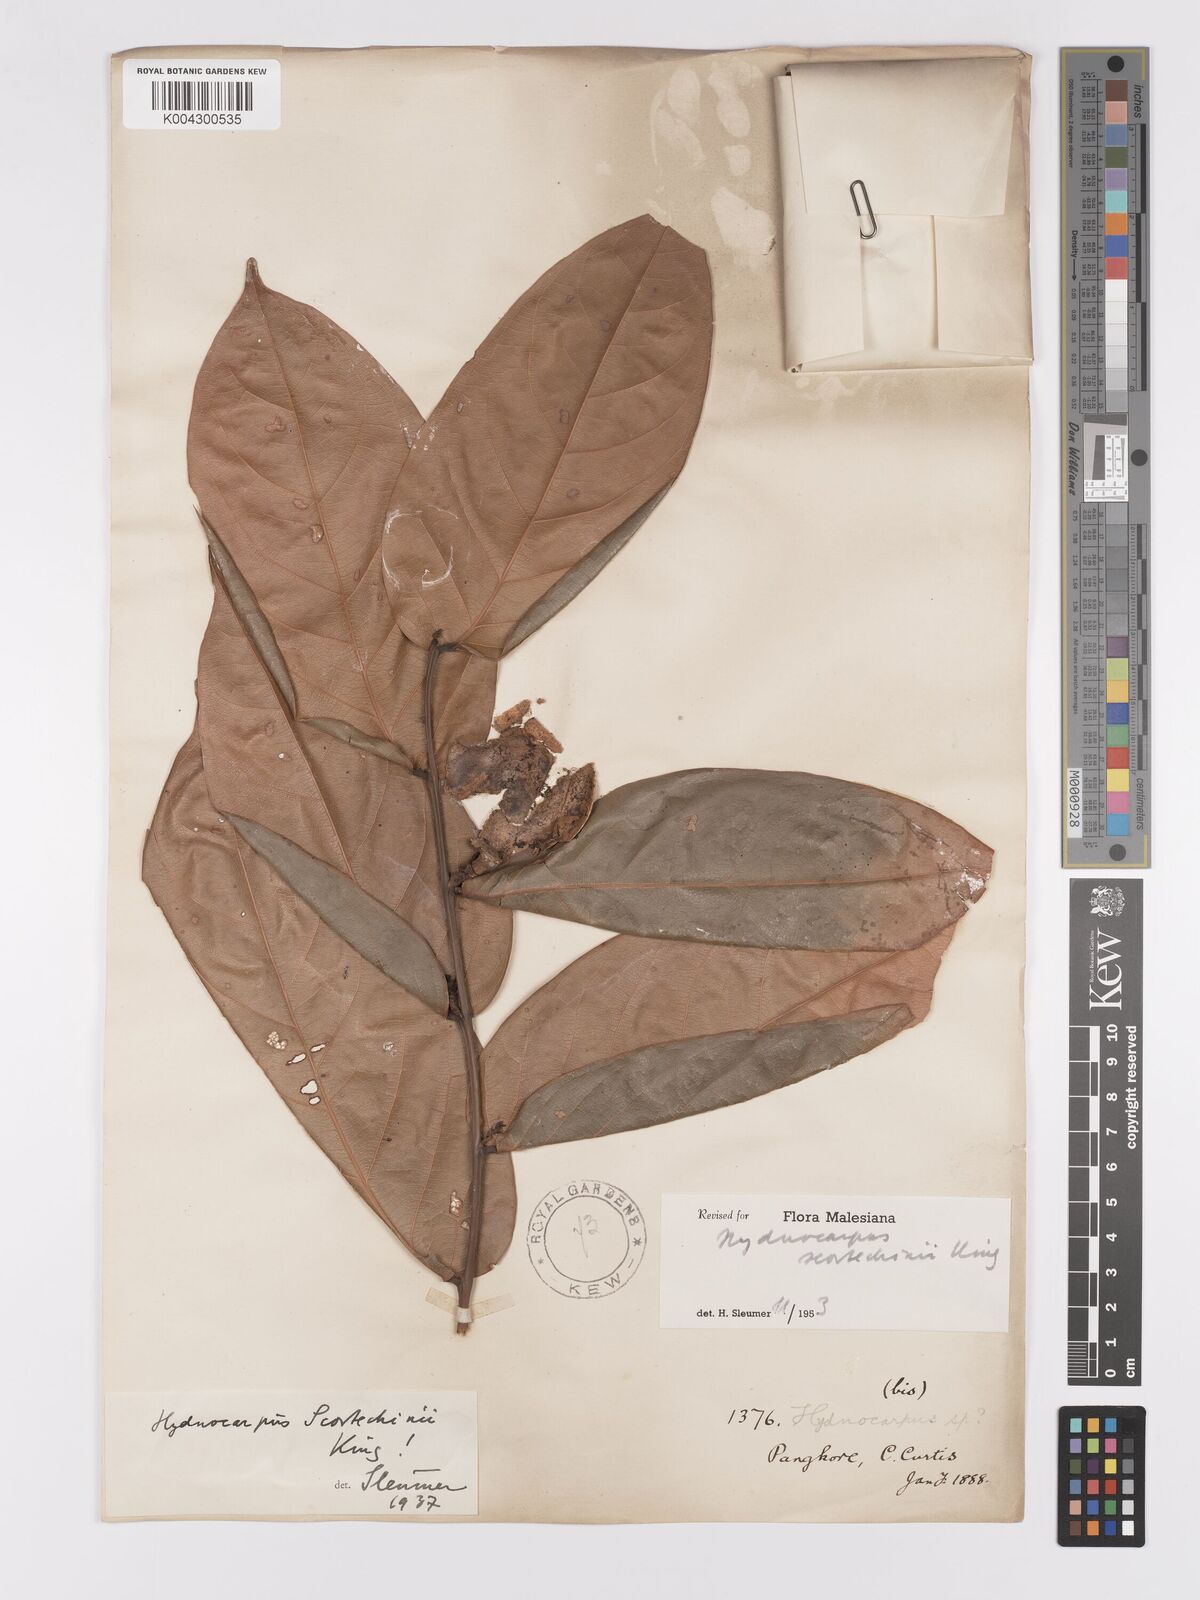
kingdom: Plantae
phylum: Tracheophyta
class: Magnoliopsida
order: Malpighiales
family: Achariaceae
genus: Hydnocarpus
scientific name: Hydnocarpus scortechinii
